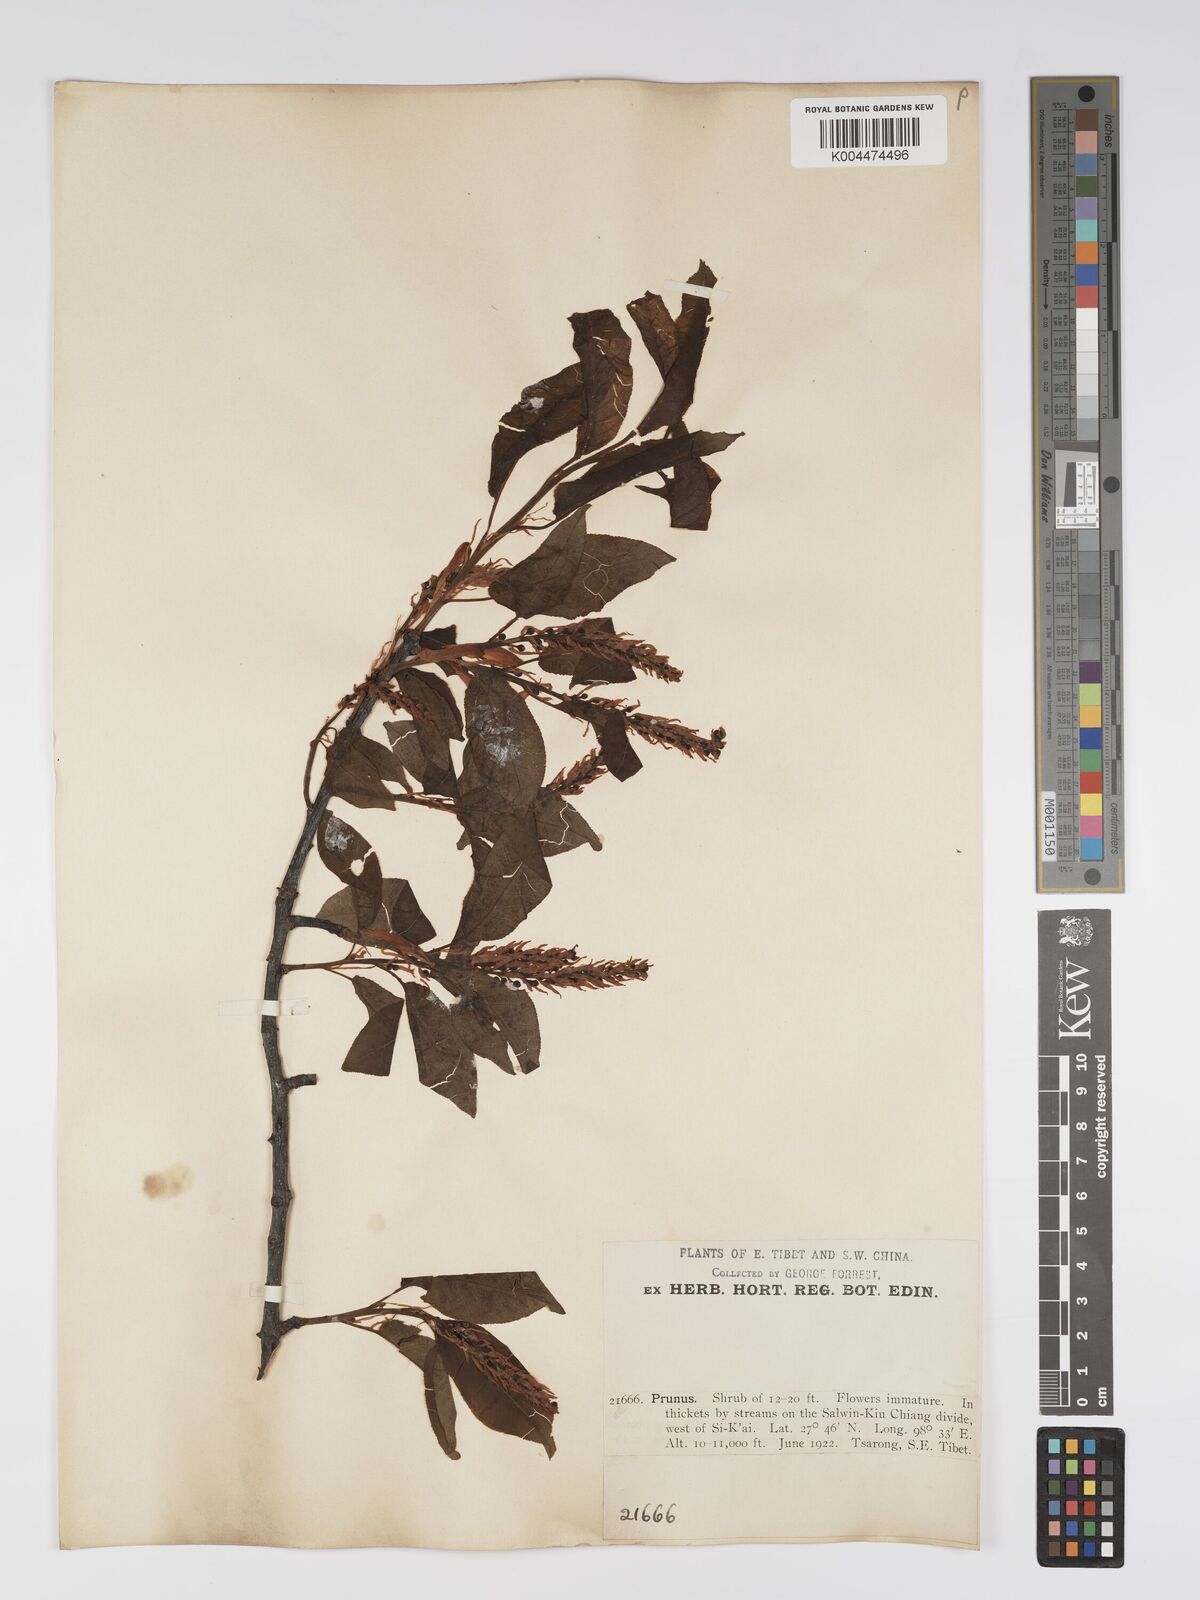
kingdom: Plantae
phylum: Tracheophyta
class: Magnoliopsida
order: Rosales
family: Rosaceae
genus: Prunus
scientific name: Prunus
